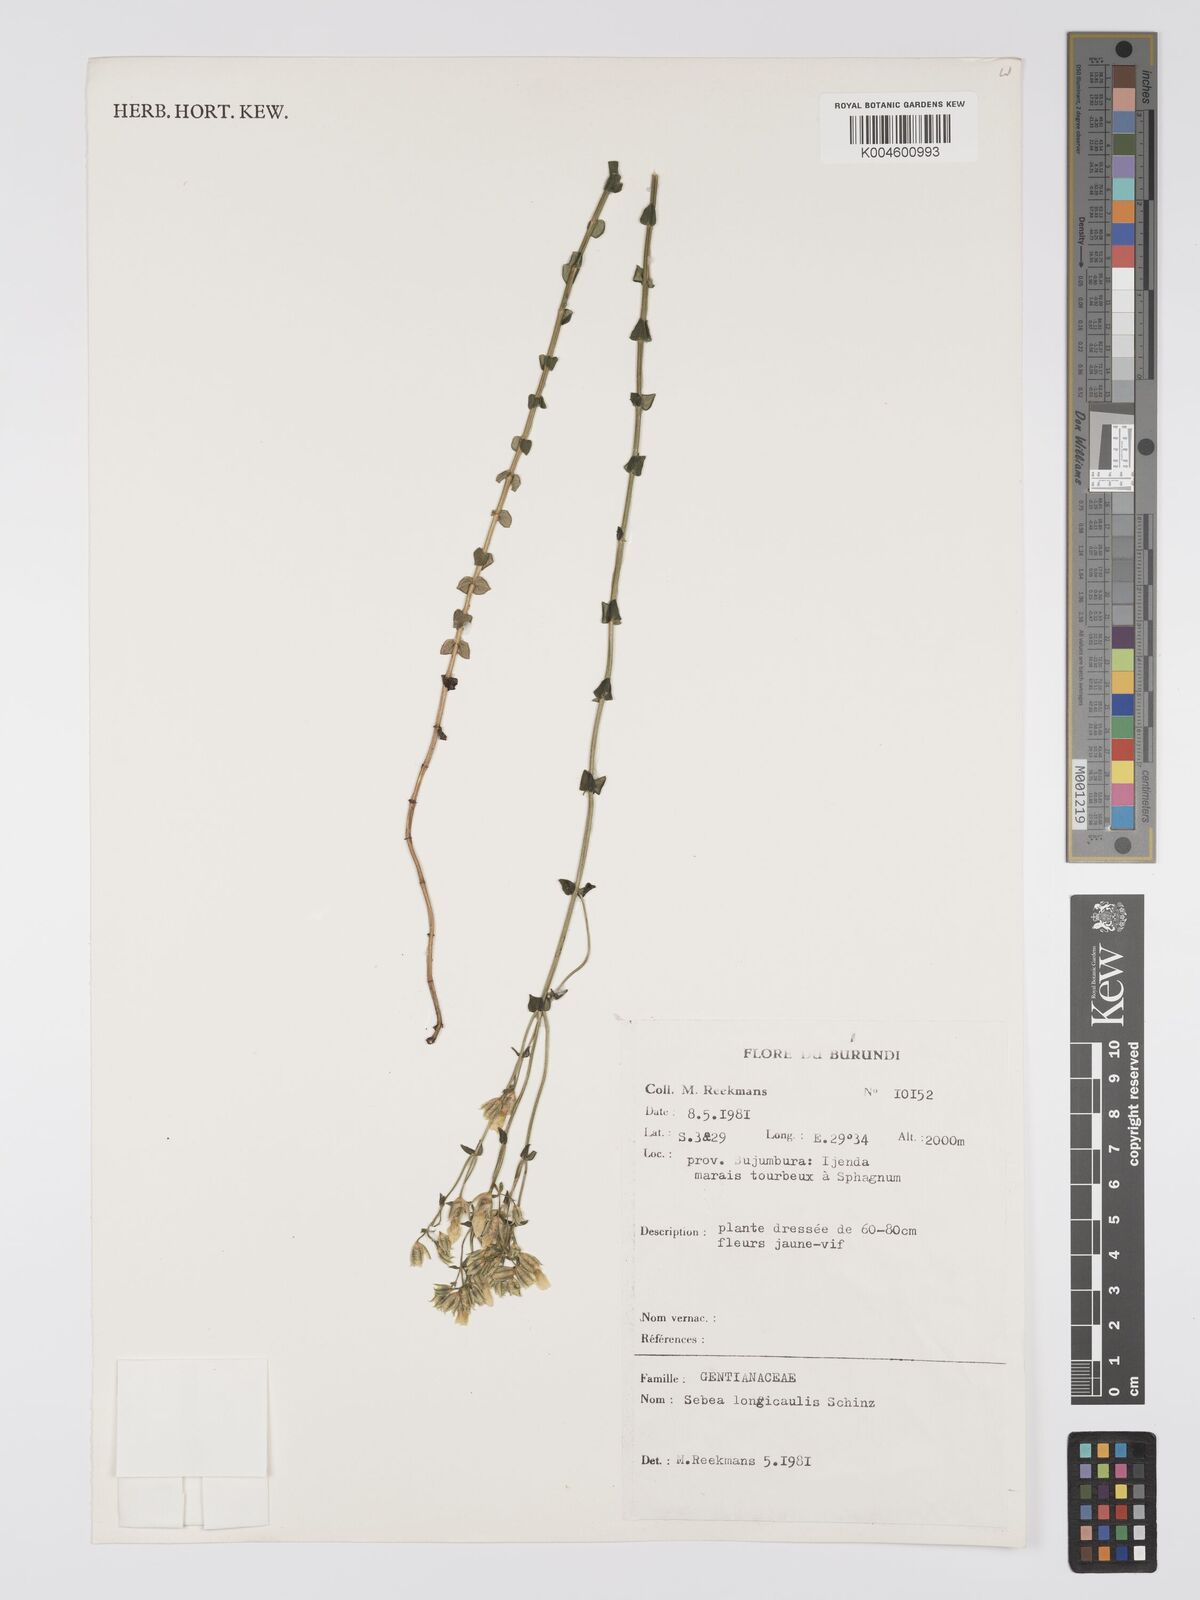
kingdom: Plantae
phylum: Tracheophyta
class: Magnoliopsida
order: Gentianales
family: Gentianaceae
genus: Sebaea
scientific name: Sebaea longicaulis
